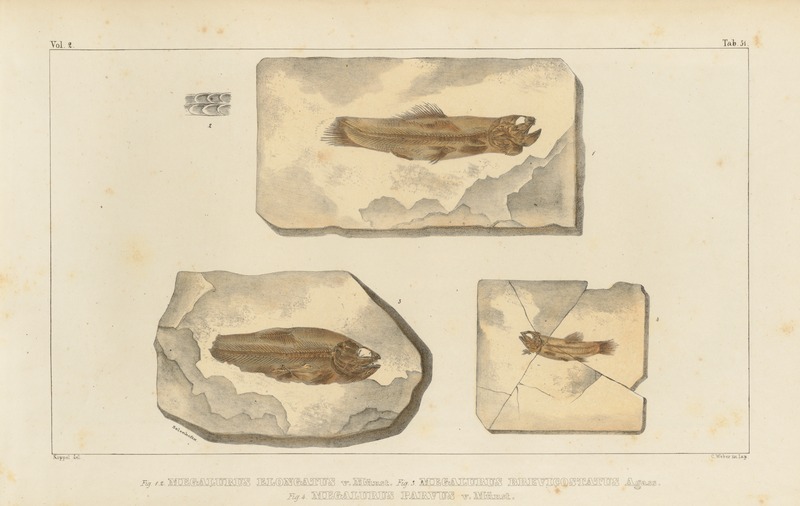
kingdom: Animalia
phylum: Chordata
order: Amiiformes
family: Amiidae
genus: Amiopsis
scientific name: Amiopsis lepidota
